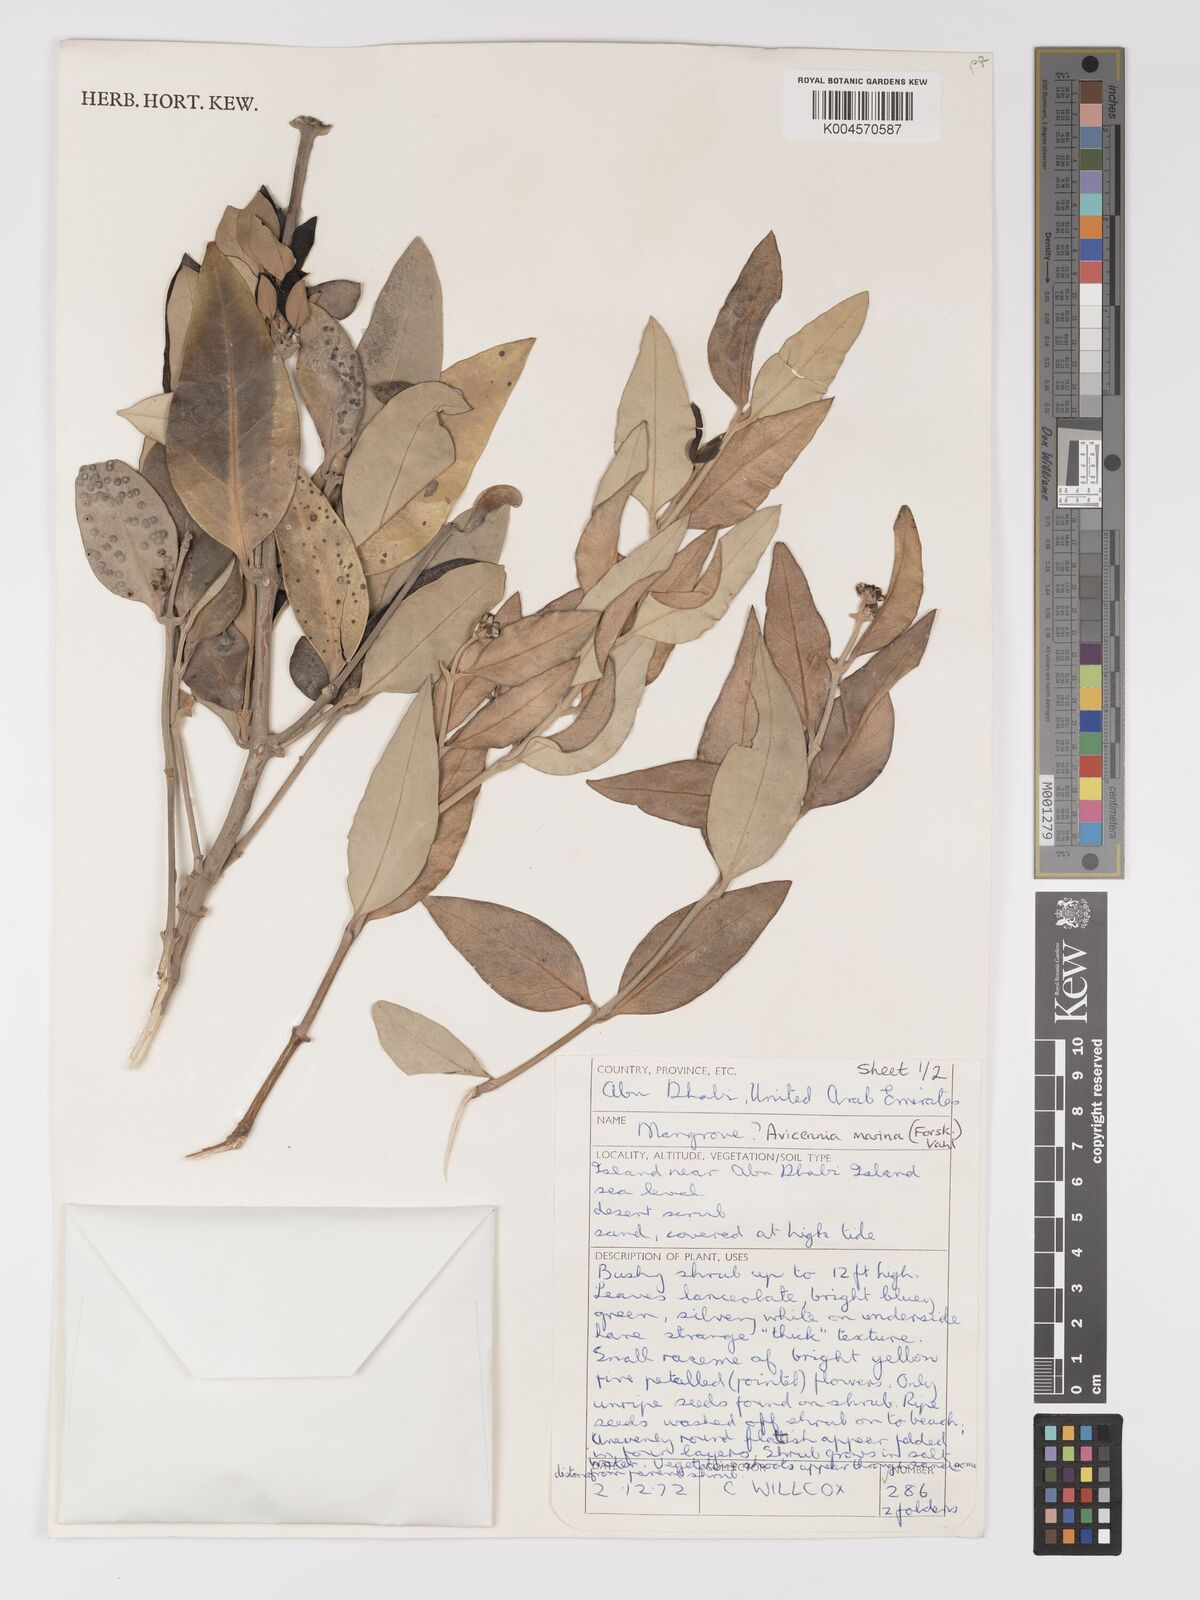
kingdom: Plantae
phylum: Tracheophyta
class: Magnoliopsida
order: Lamiales
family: Acanthaceae
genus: Avicennia
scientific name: Avicennia
